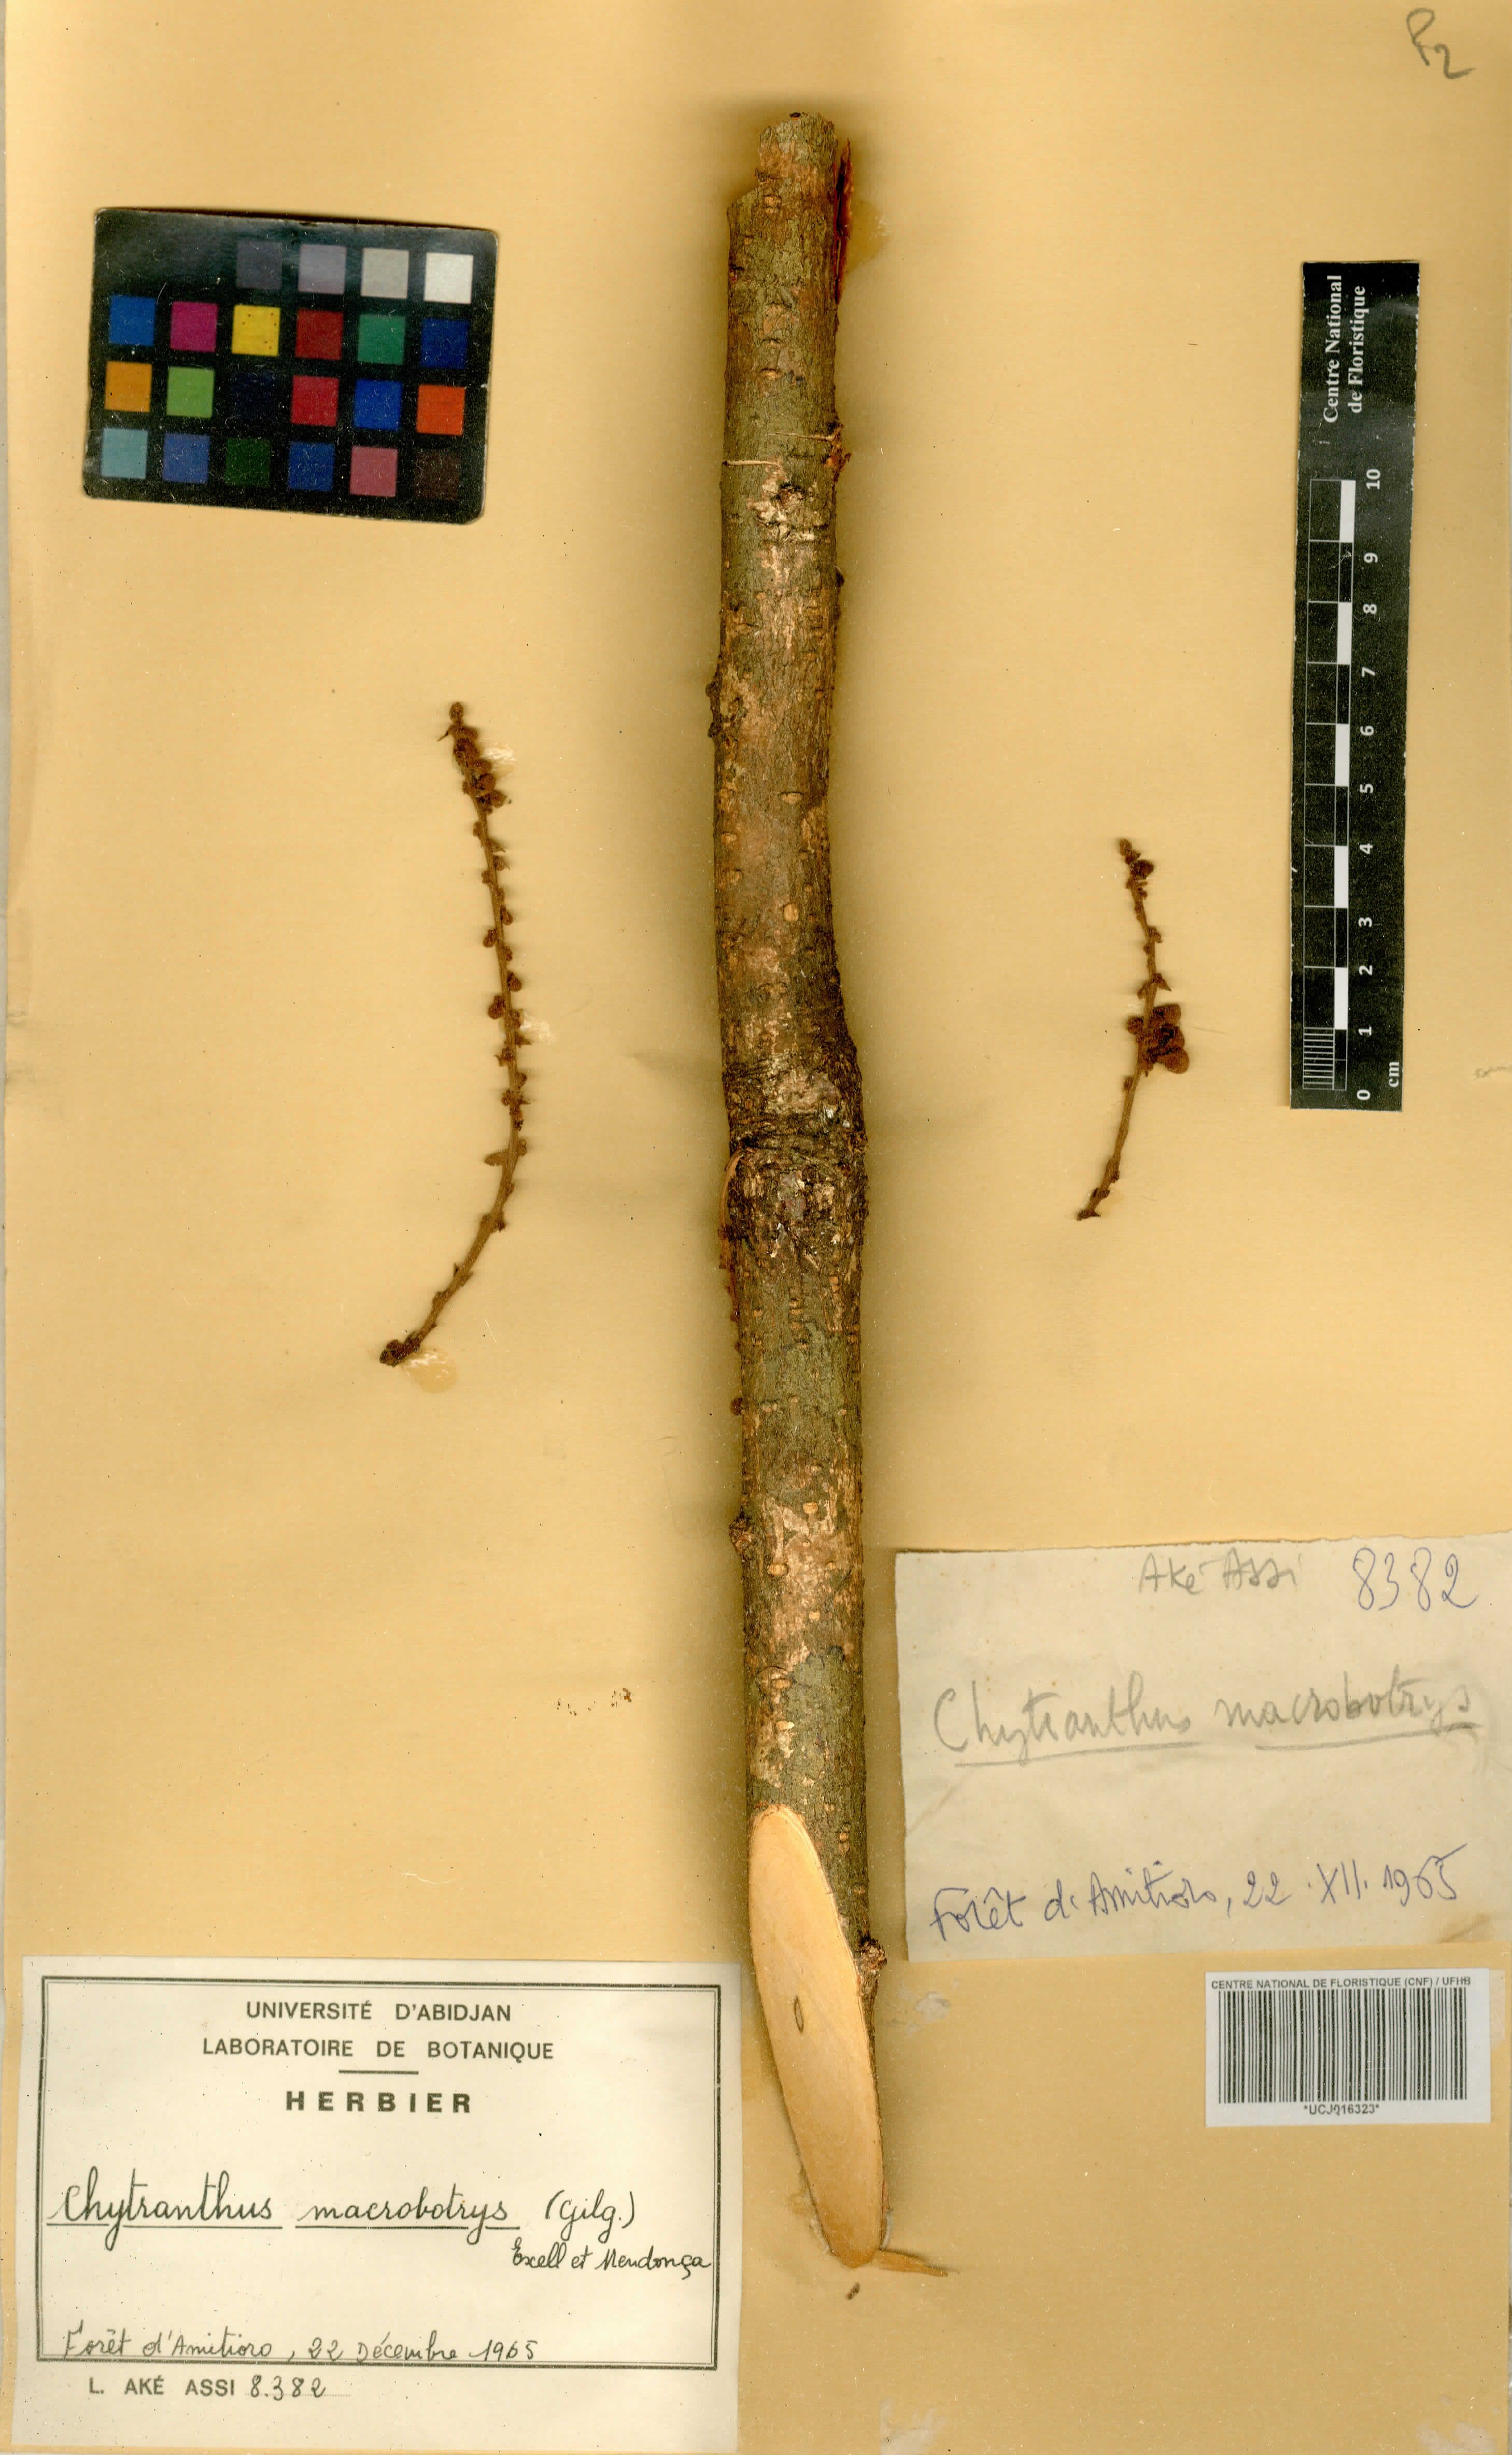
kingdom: Plantae
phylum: Tracheophyta
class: Magnoliopsida
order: Sapindales
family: Sapindaceae
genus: Chytranthus
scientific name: Chytranthus macrobotrys
